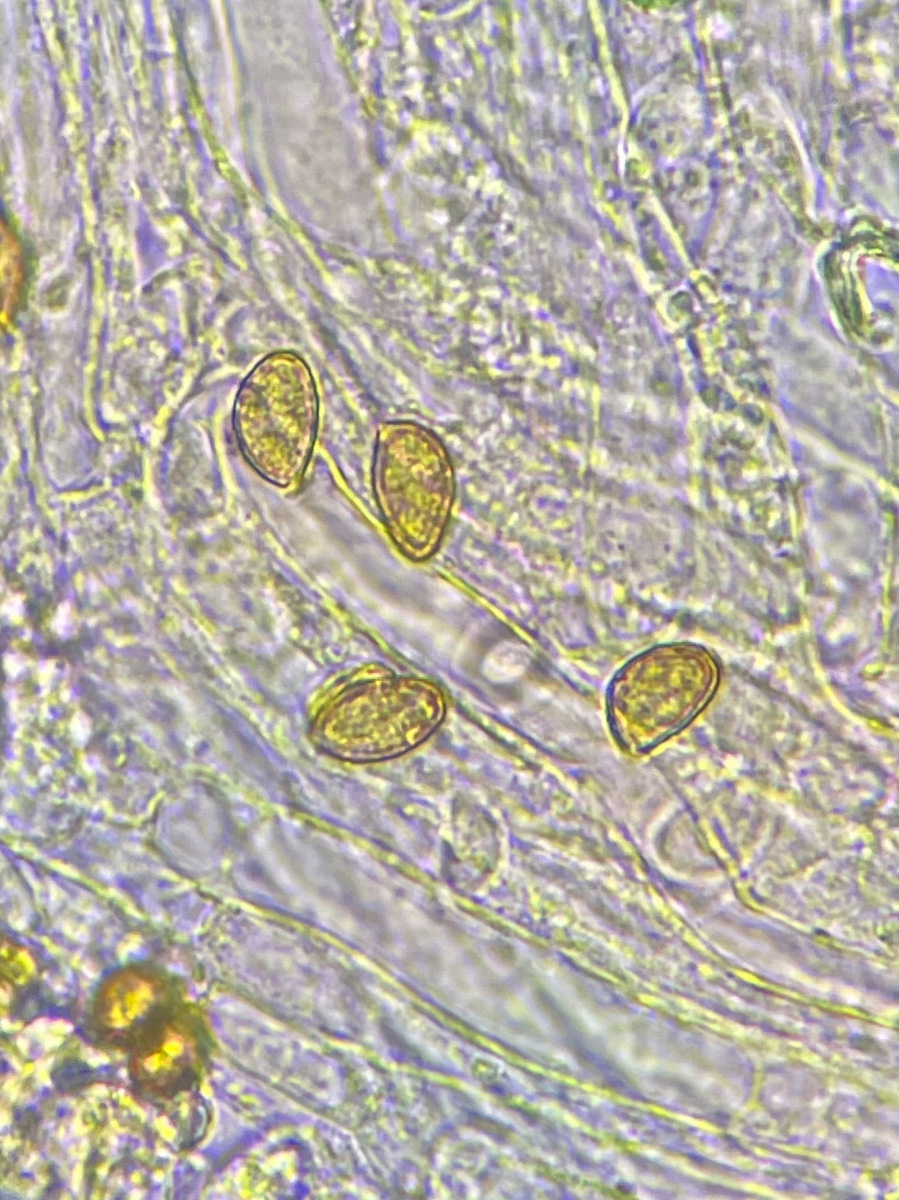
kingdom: Fungi
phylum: Basidiomycota
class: Agaricomycetes
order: Agaricales
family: Cortinariaceae
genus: Phlegmacium
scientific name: Phlegmacium vulpinum
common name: ringbæltet slørhat
